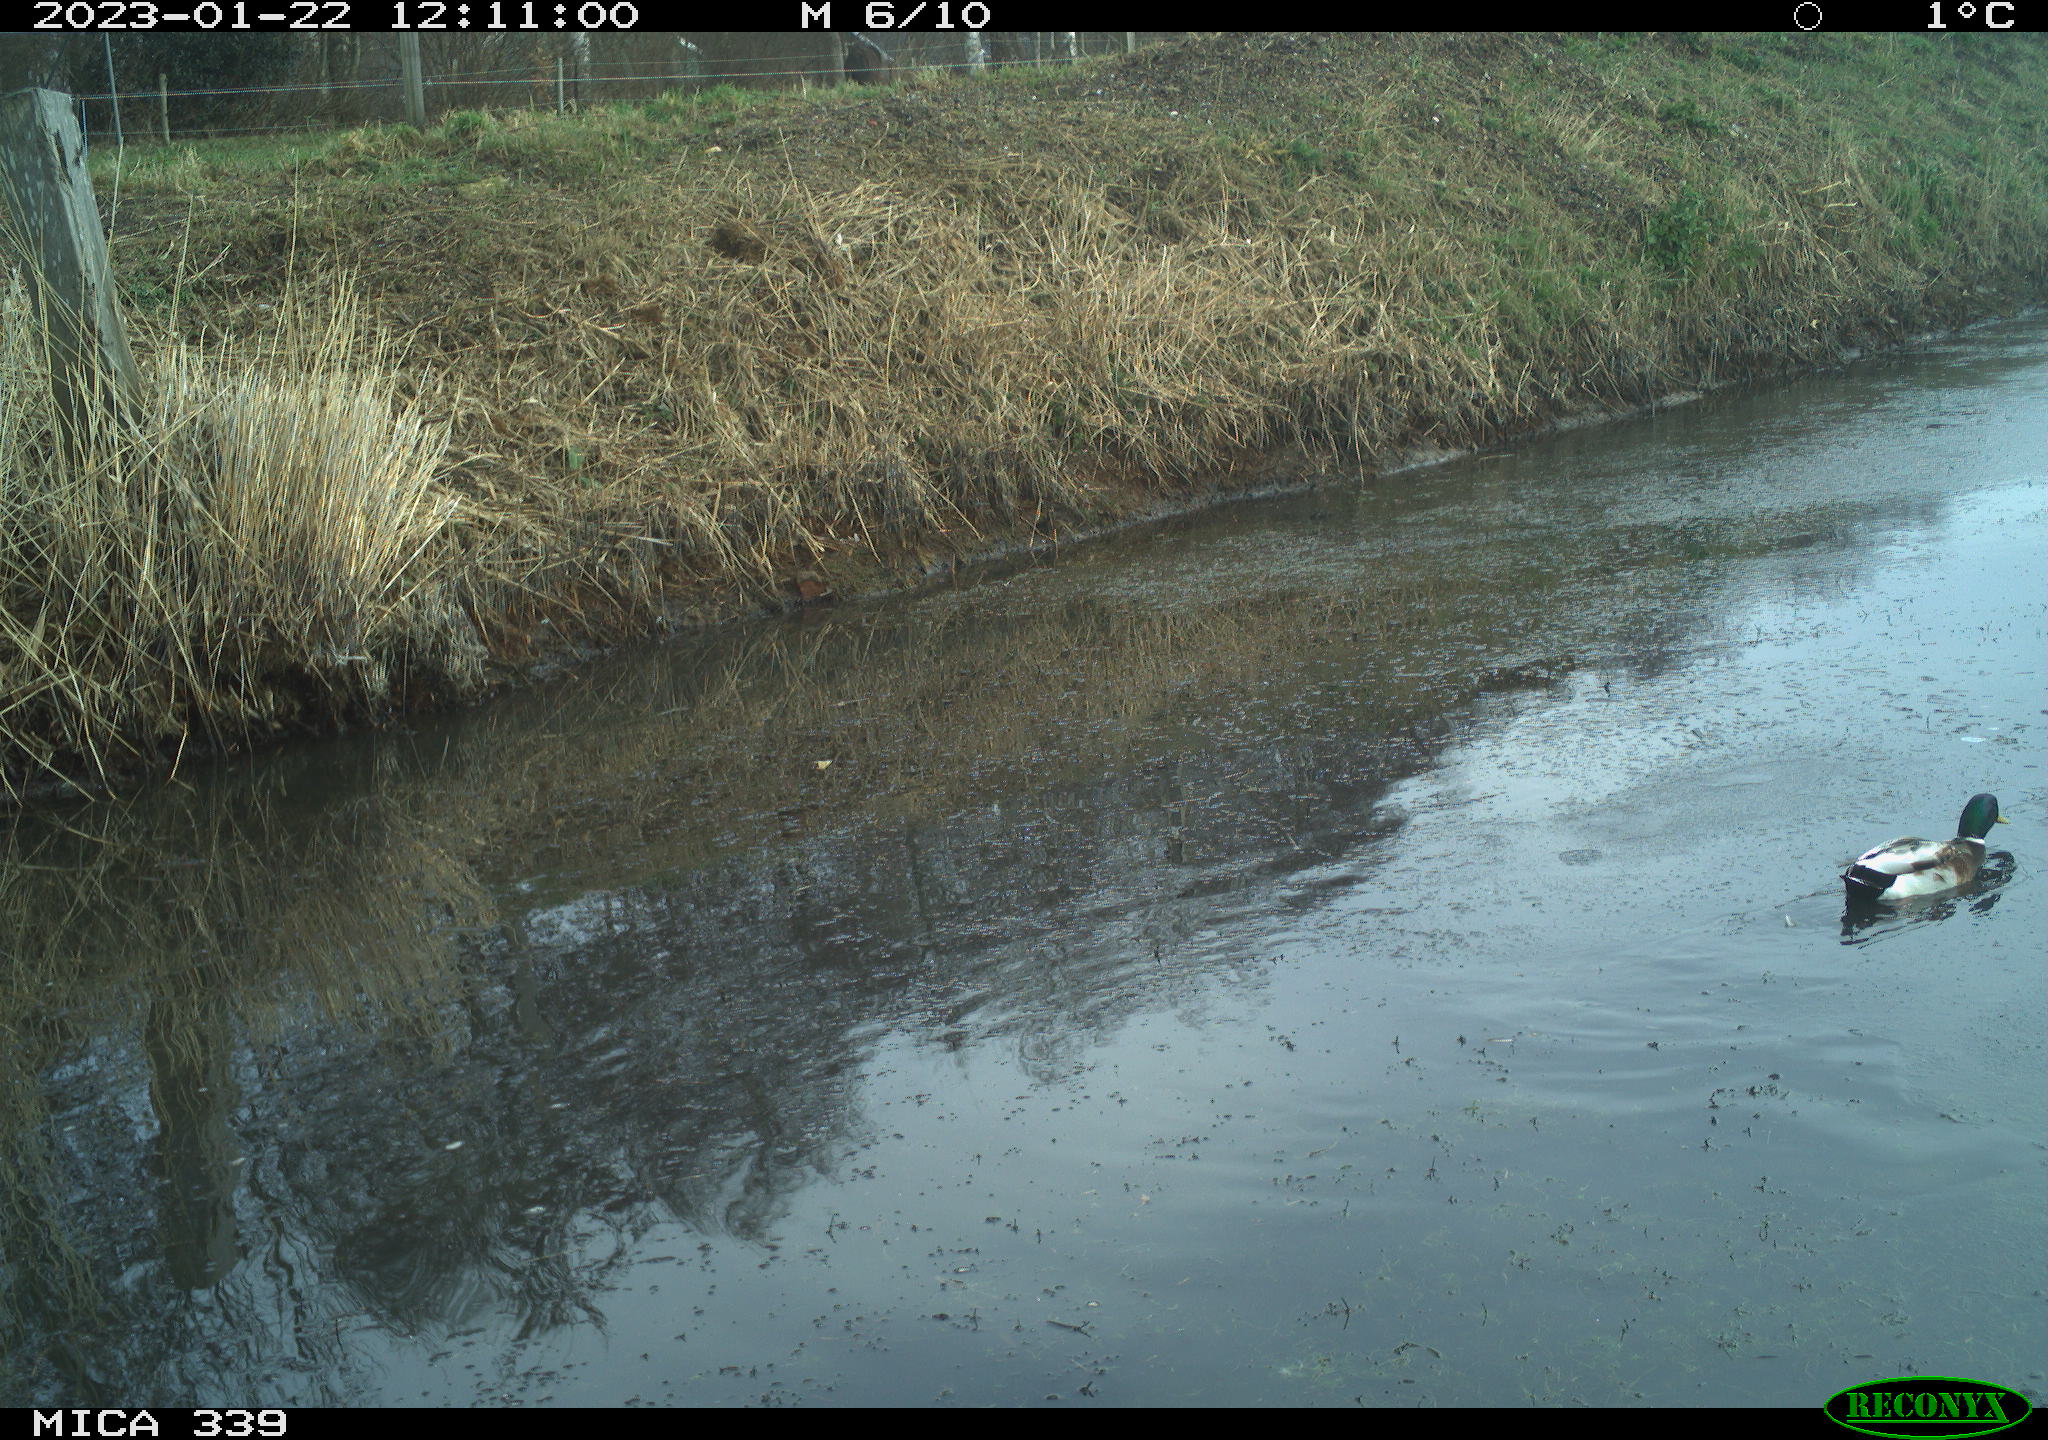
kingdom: Animalia
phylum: Chordata
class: Aves
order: Anseriformes
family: Anatidae
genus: Anas
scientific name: Anas
